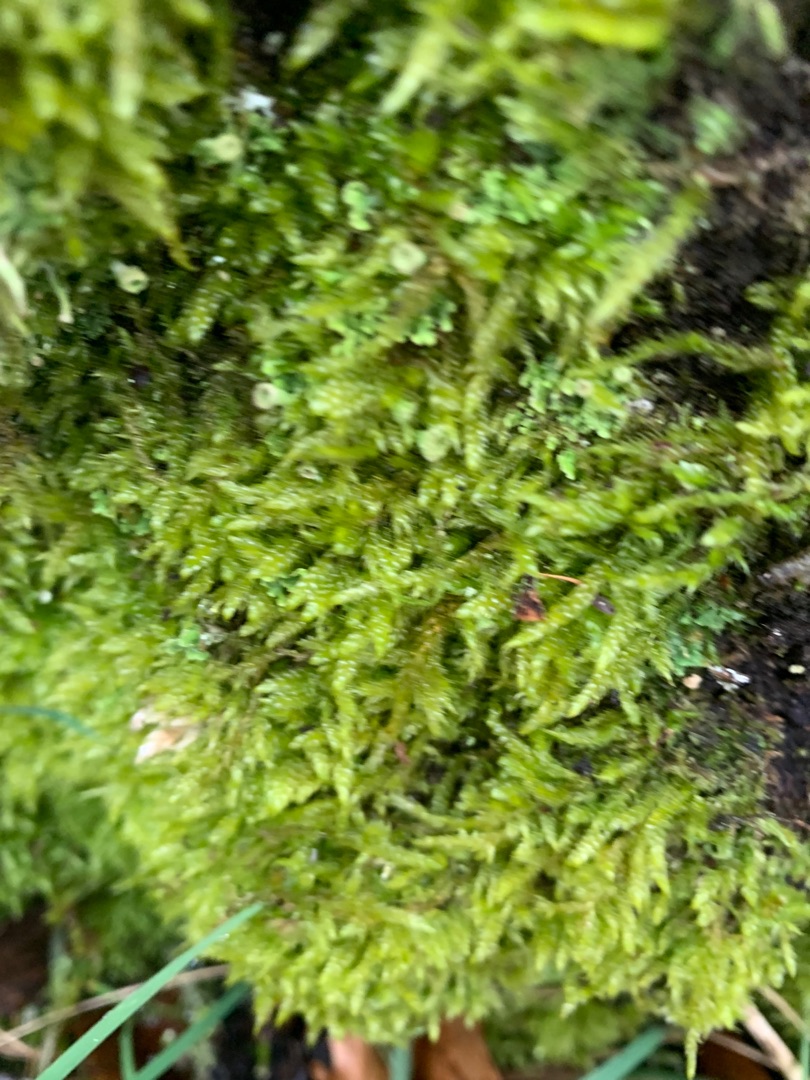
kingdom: Plantae
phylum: Bryophyta
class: Bryopsida
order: Hypnales
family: Hypnaceae
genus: Hypnum
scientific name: Hypnum cupressiforme
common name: Almindelig cypresmos
